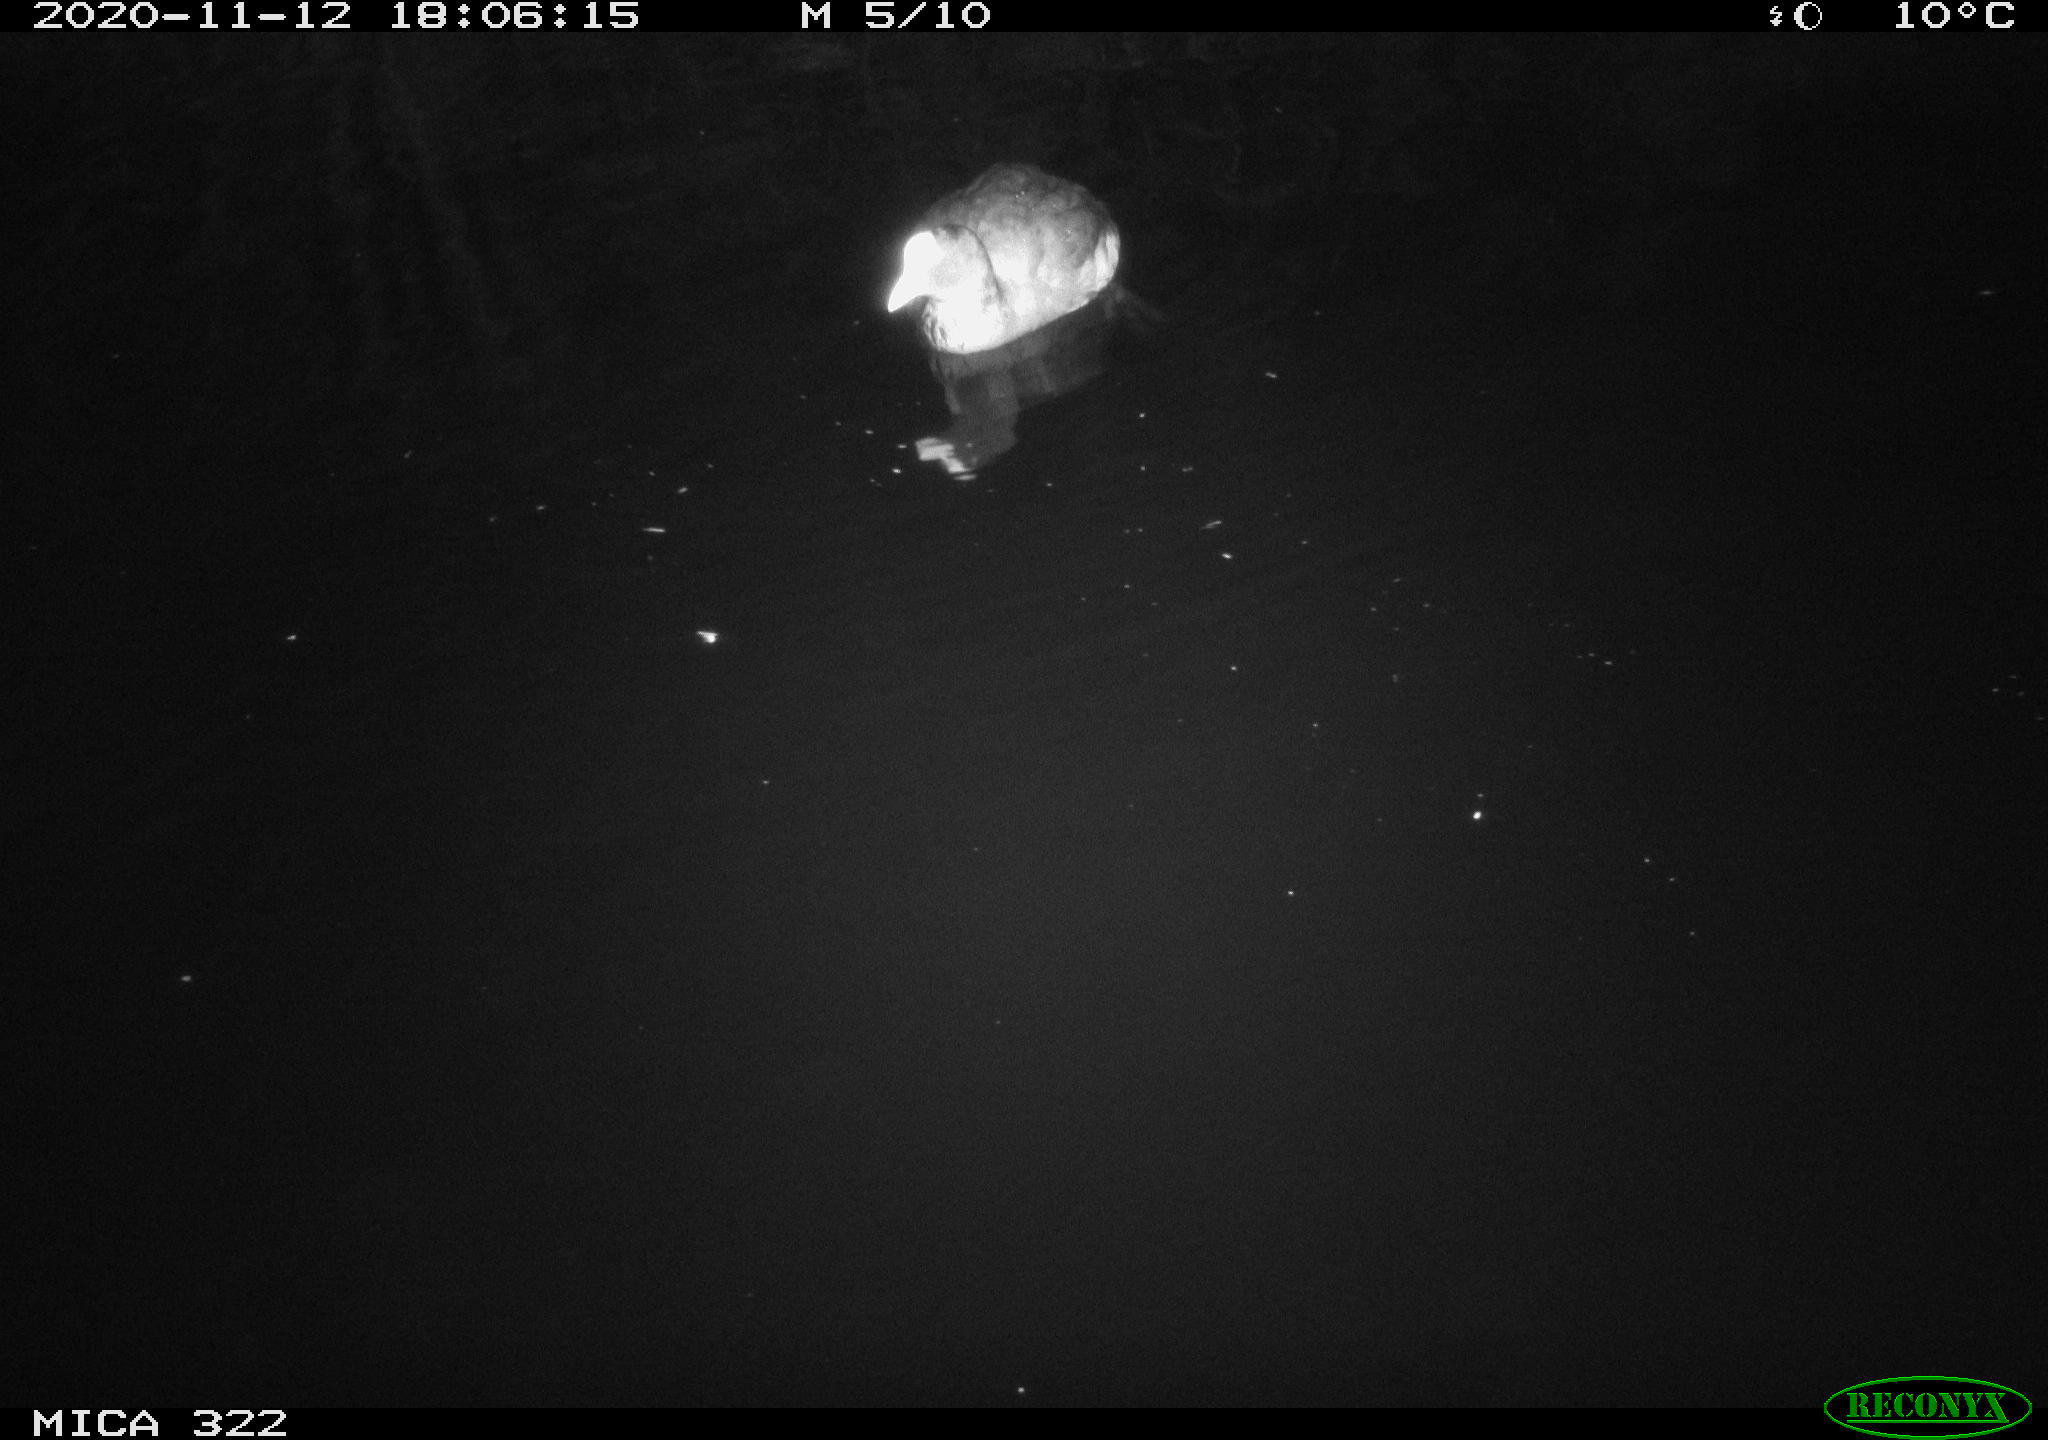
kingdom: Animalia
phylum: Chordata
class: Aves
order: Anseriformes
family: Anatidae
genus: Anas
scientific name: Anas platyrhynchos
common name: Mallard
